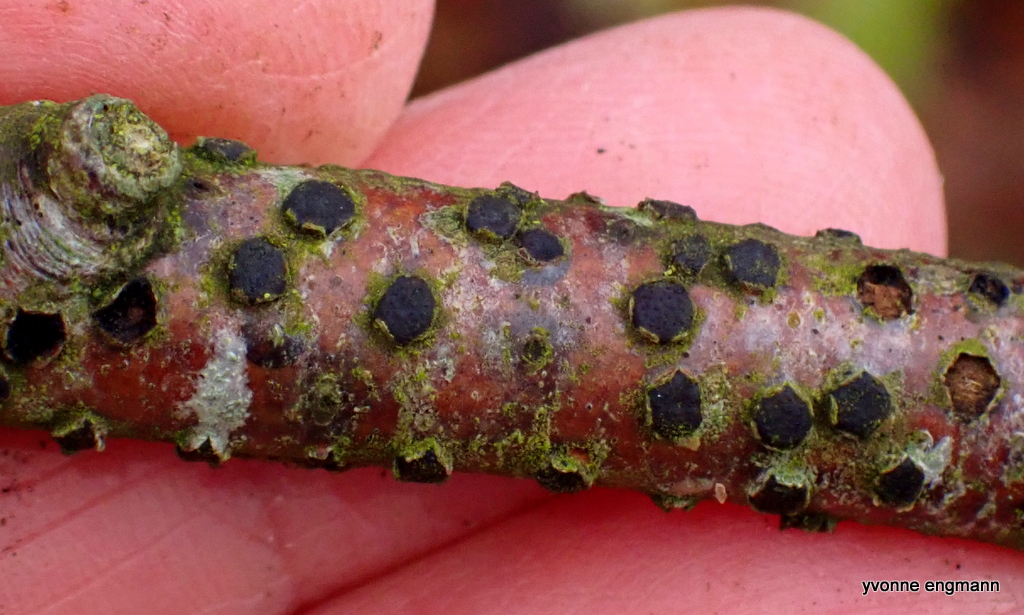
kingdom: Fungi
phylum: Ascomycota
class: Sordariomycetes
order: Xylariales
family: Diatrypaceae
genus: Diatrype
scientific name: Diatrype disciformis
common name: kant-kulskorpe
